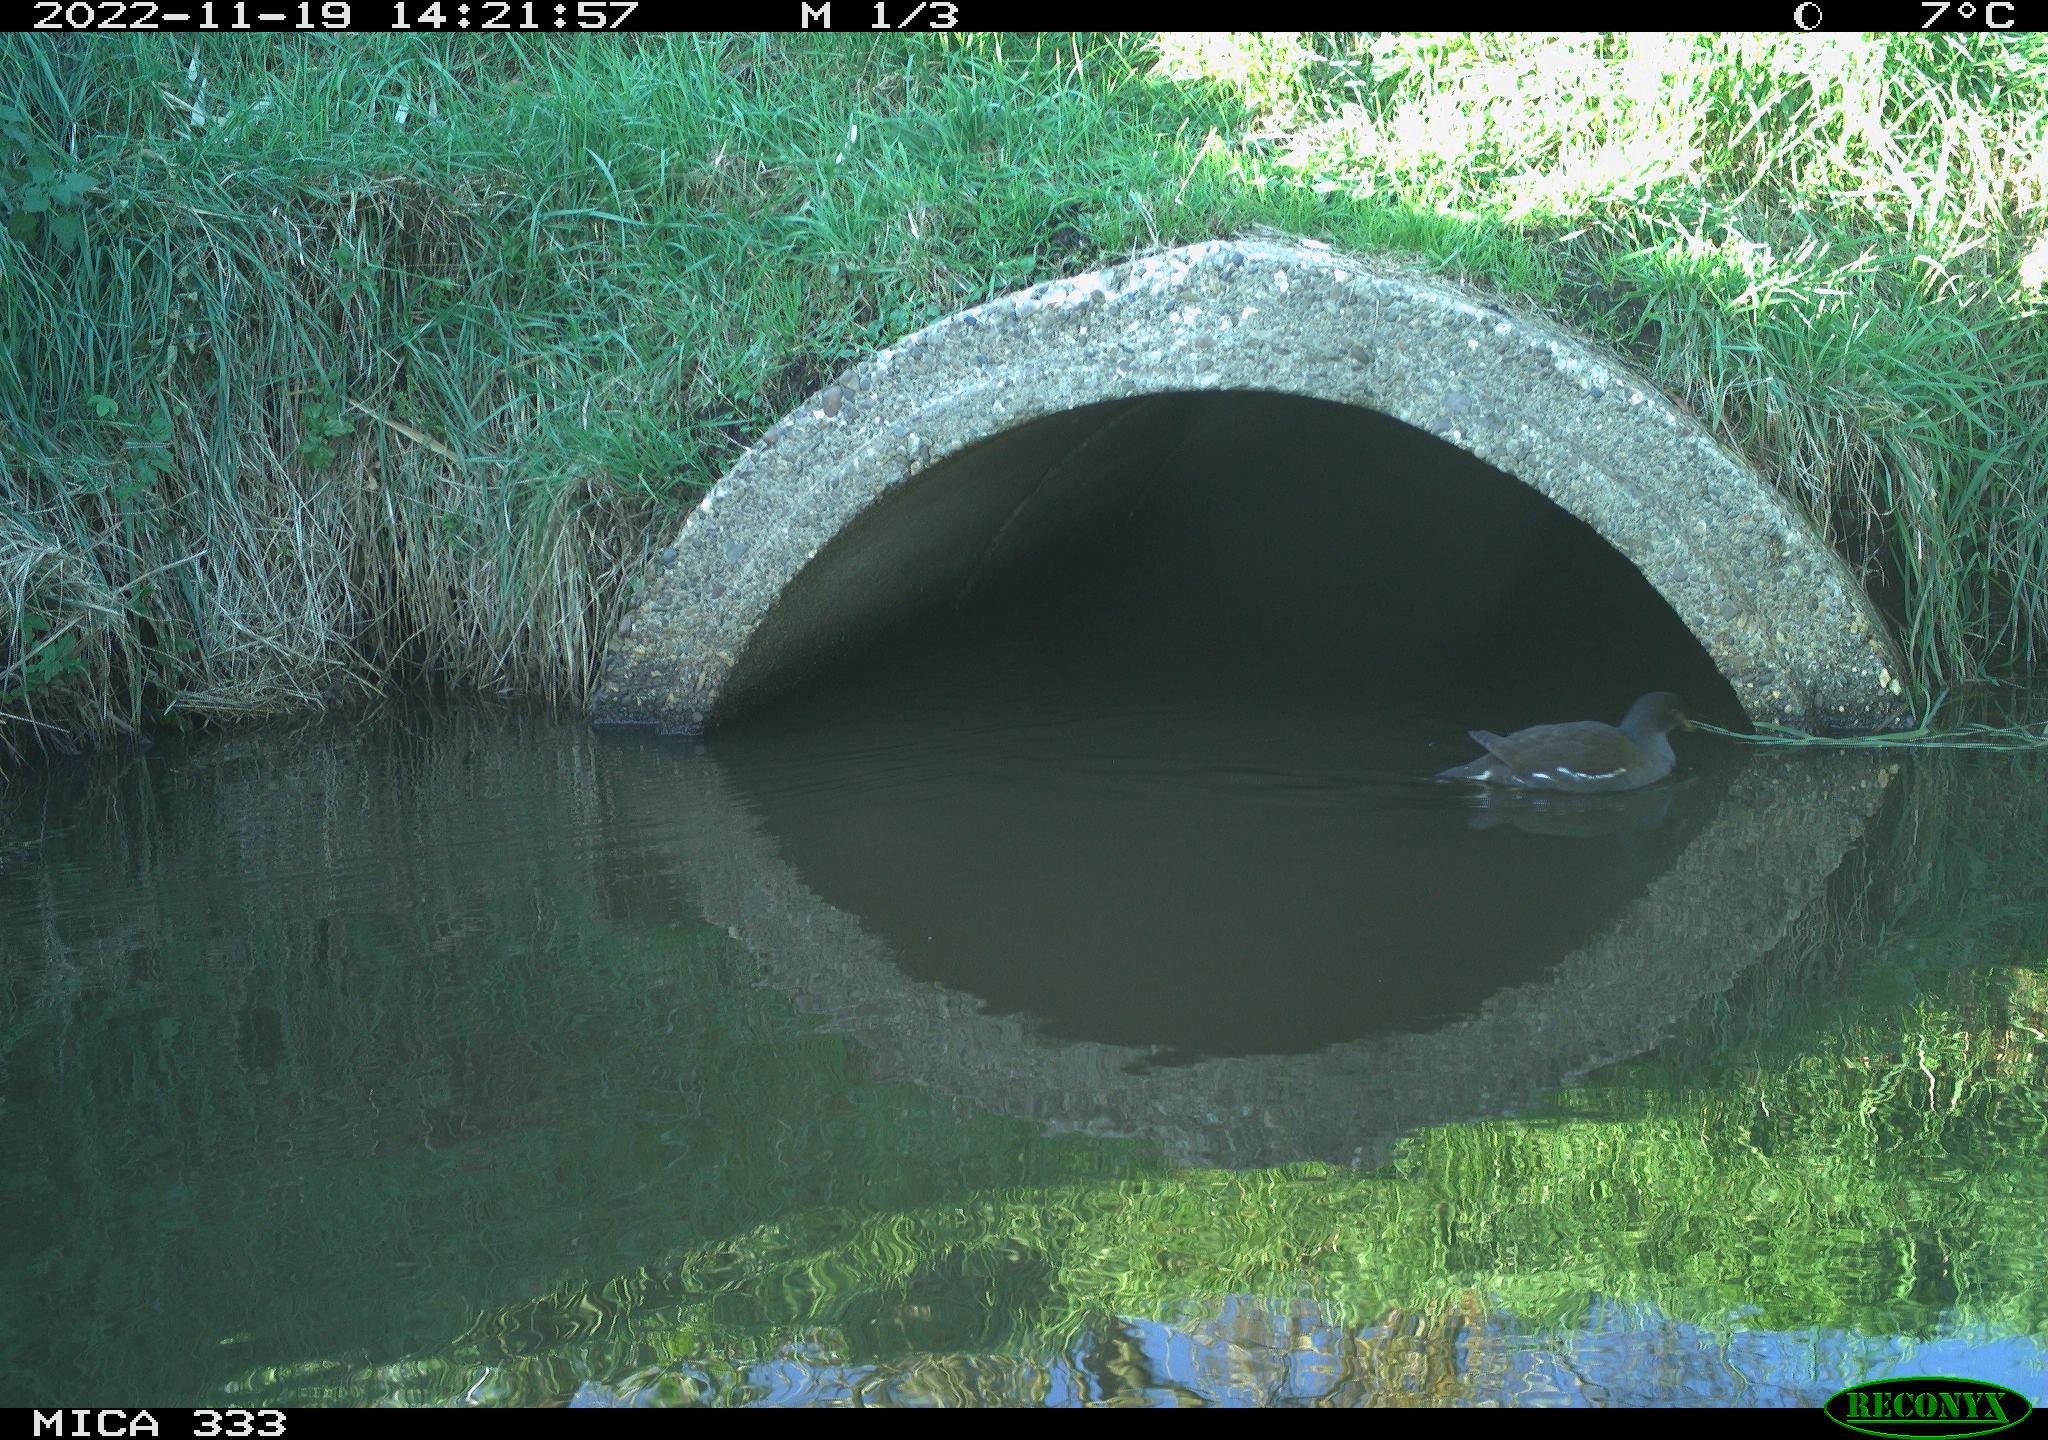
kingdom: Animalia
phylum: Chordata
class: Aves
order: Gruiformes
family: Rallidae
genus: Gallinula
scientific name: Gallinula chloropus
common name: Common moorhen
